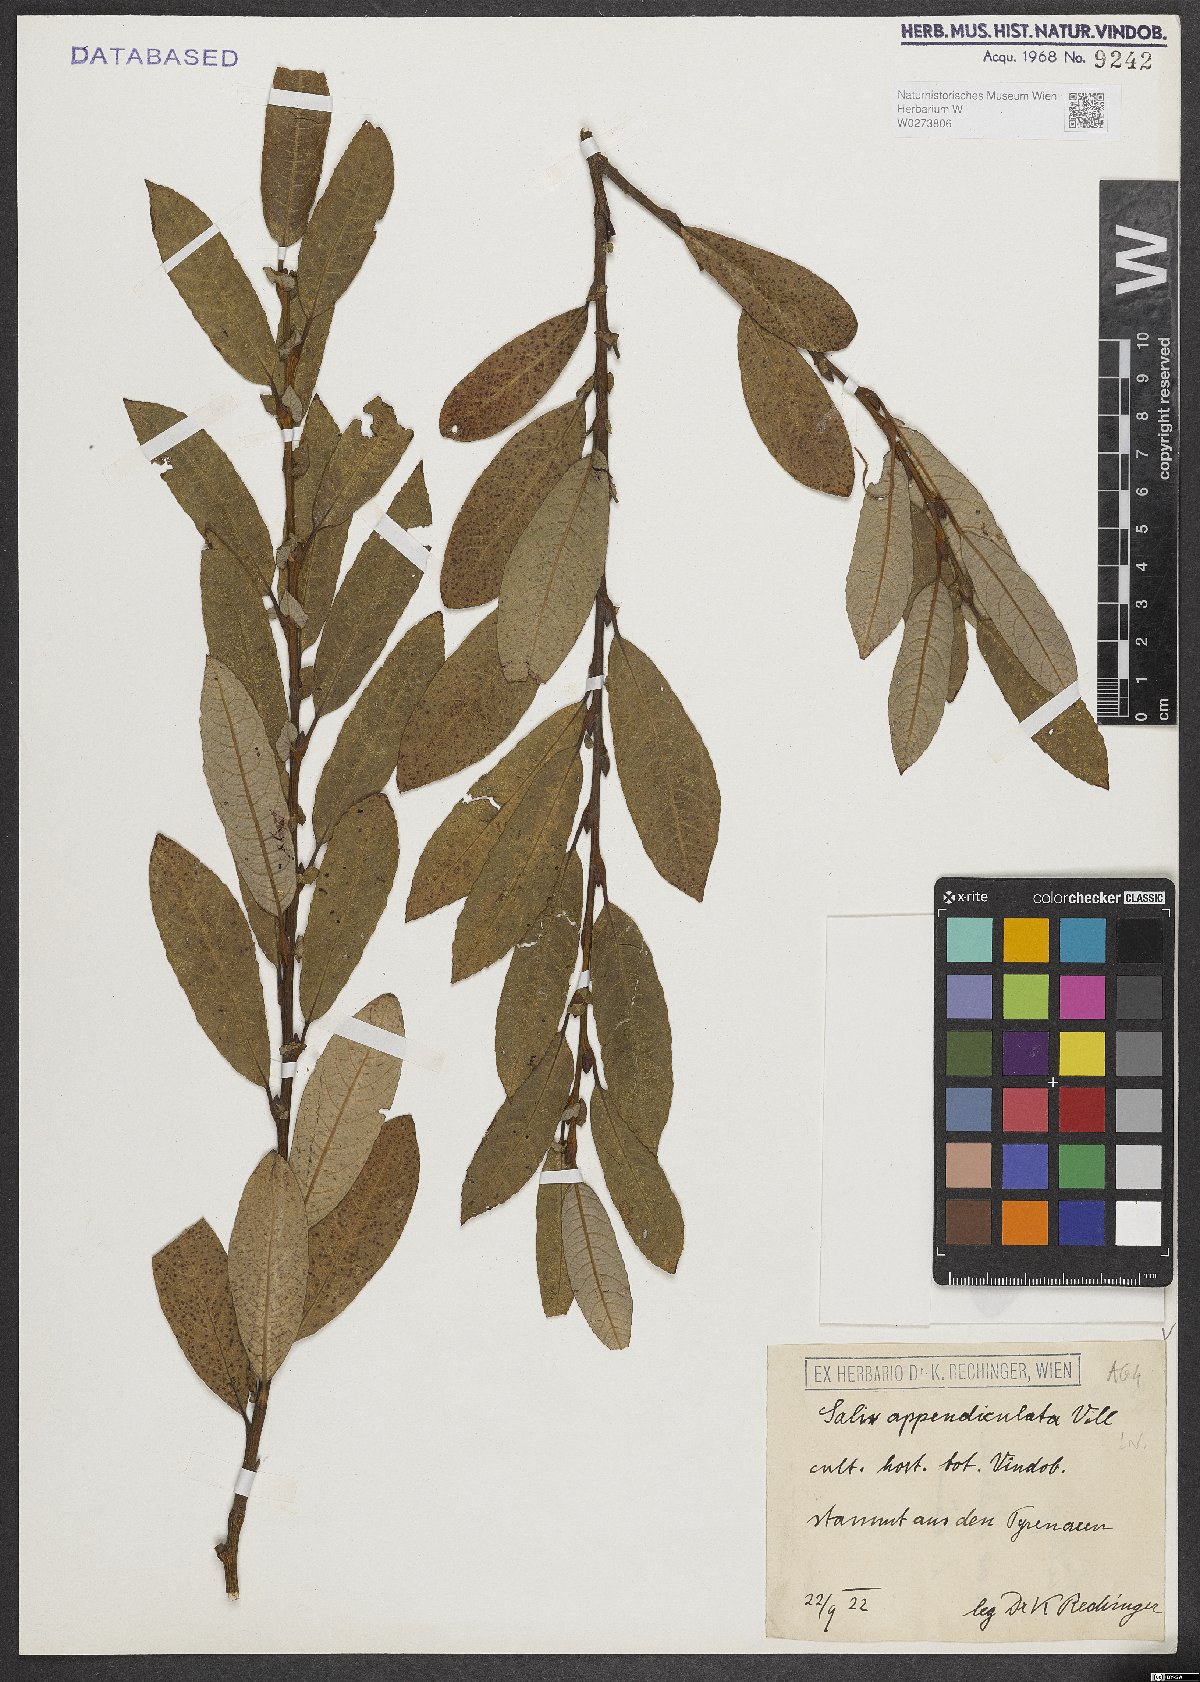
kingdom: Plantae
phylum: Tracheophyta
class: Magnoliopsida
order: Malpighiales
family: Salicaceae
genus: Salix
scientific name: Salix appendiculata
